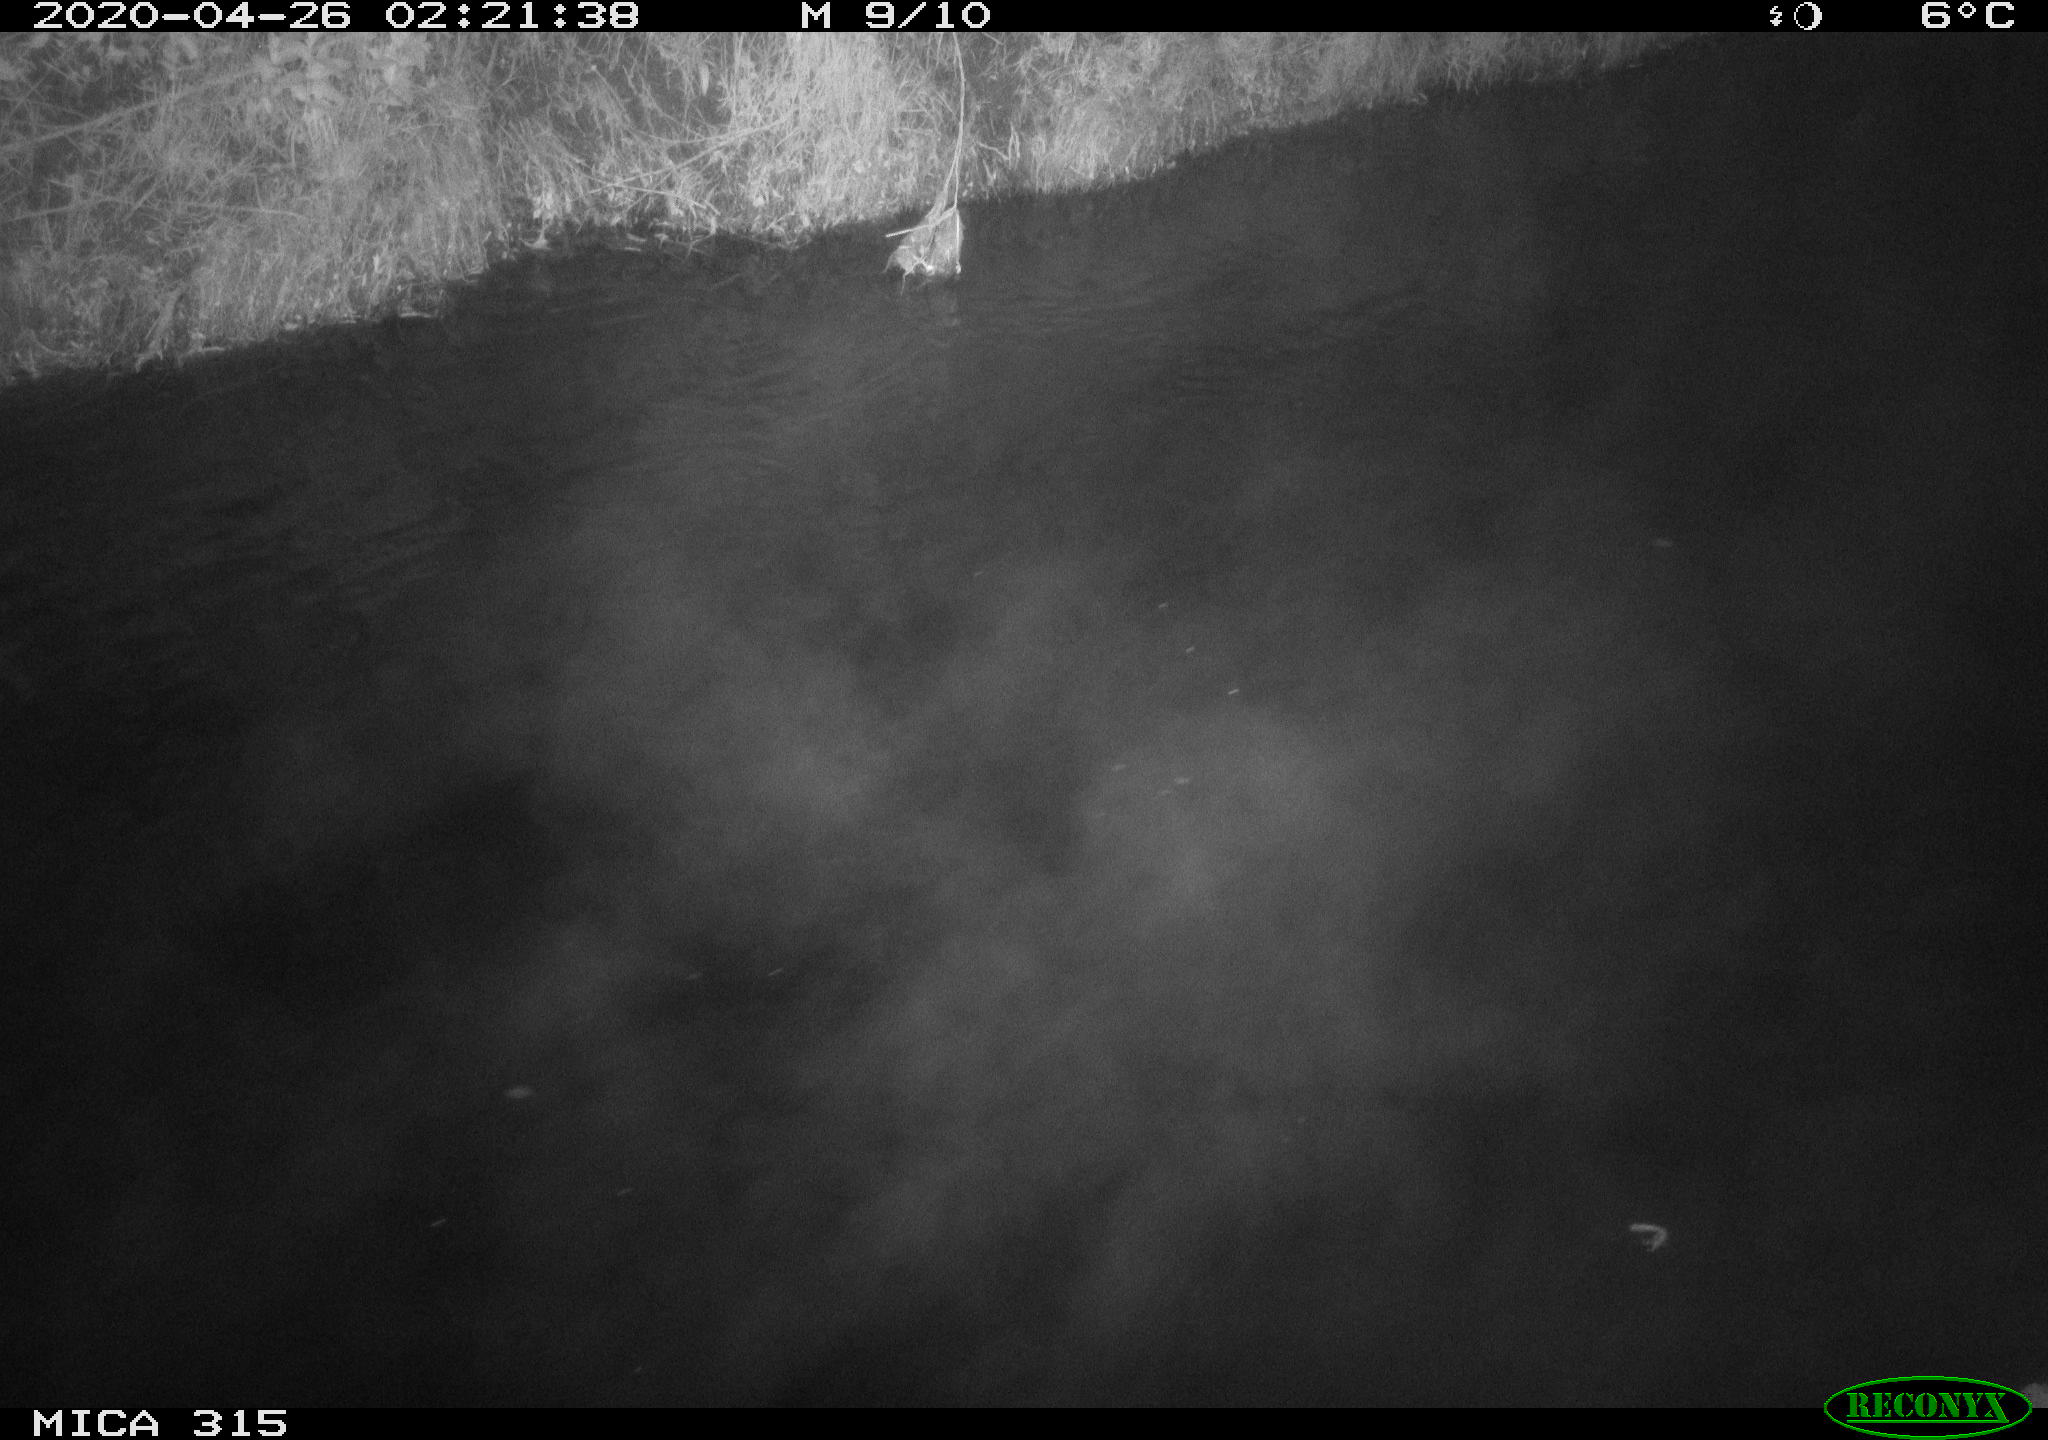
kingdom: Animalia
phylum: Chordata
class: Aves
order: Anseriformes
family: Anatidae
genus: Anas
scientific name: Anas platyrhynchos
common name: Mallard
